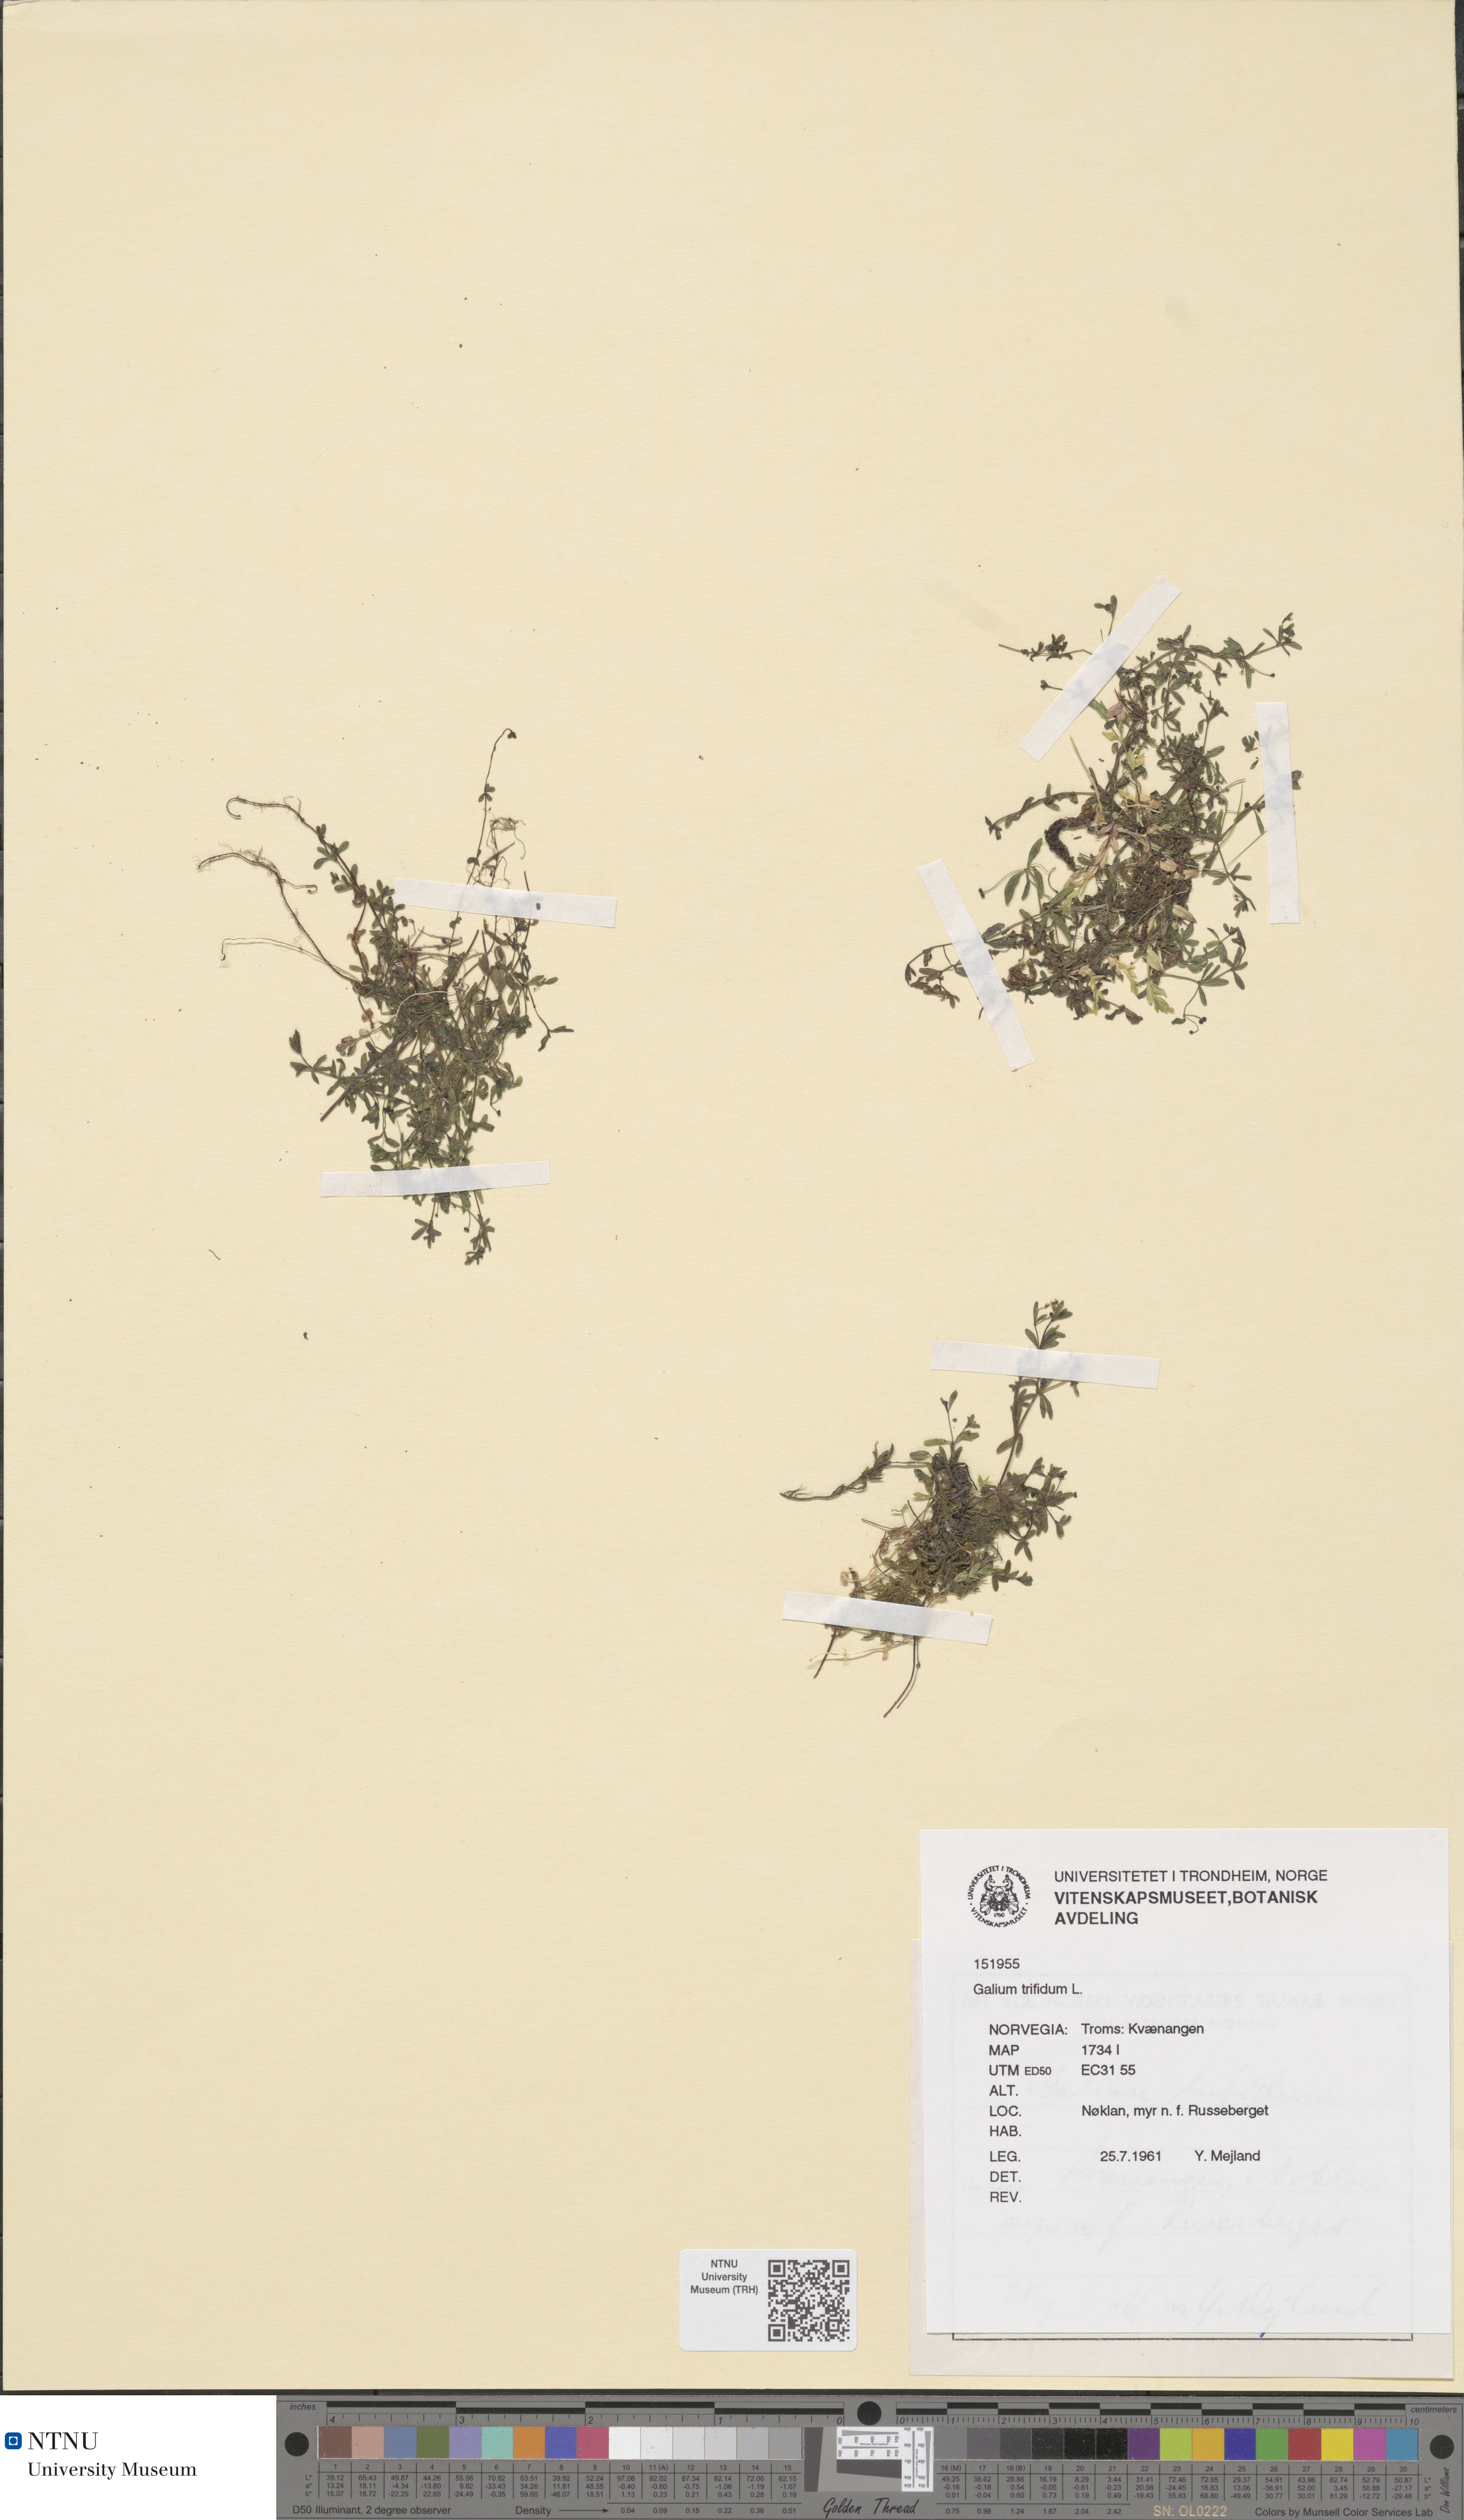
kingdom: Plantae
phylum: Tracheophyta
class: Magnoliopsida
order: Gentianales
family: Rubiaceae
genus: Galium
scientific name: Galium trifidum
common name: Small bedstraw
